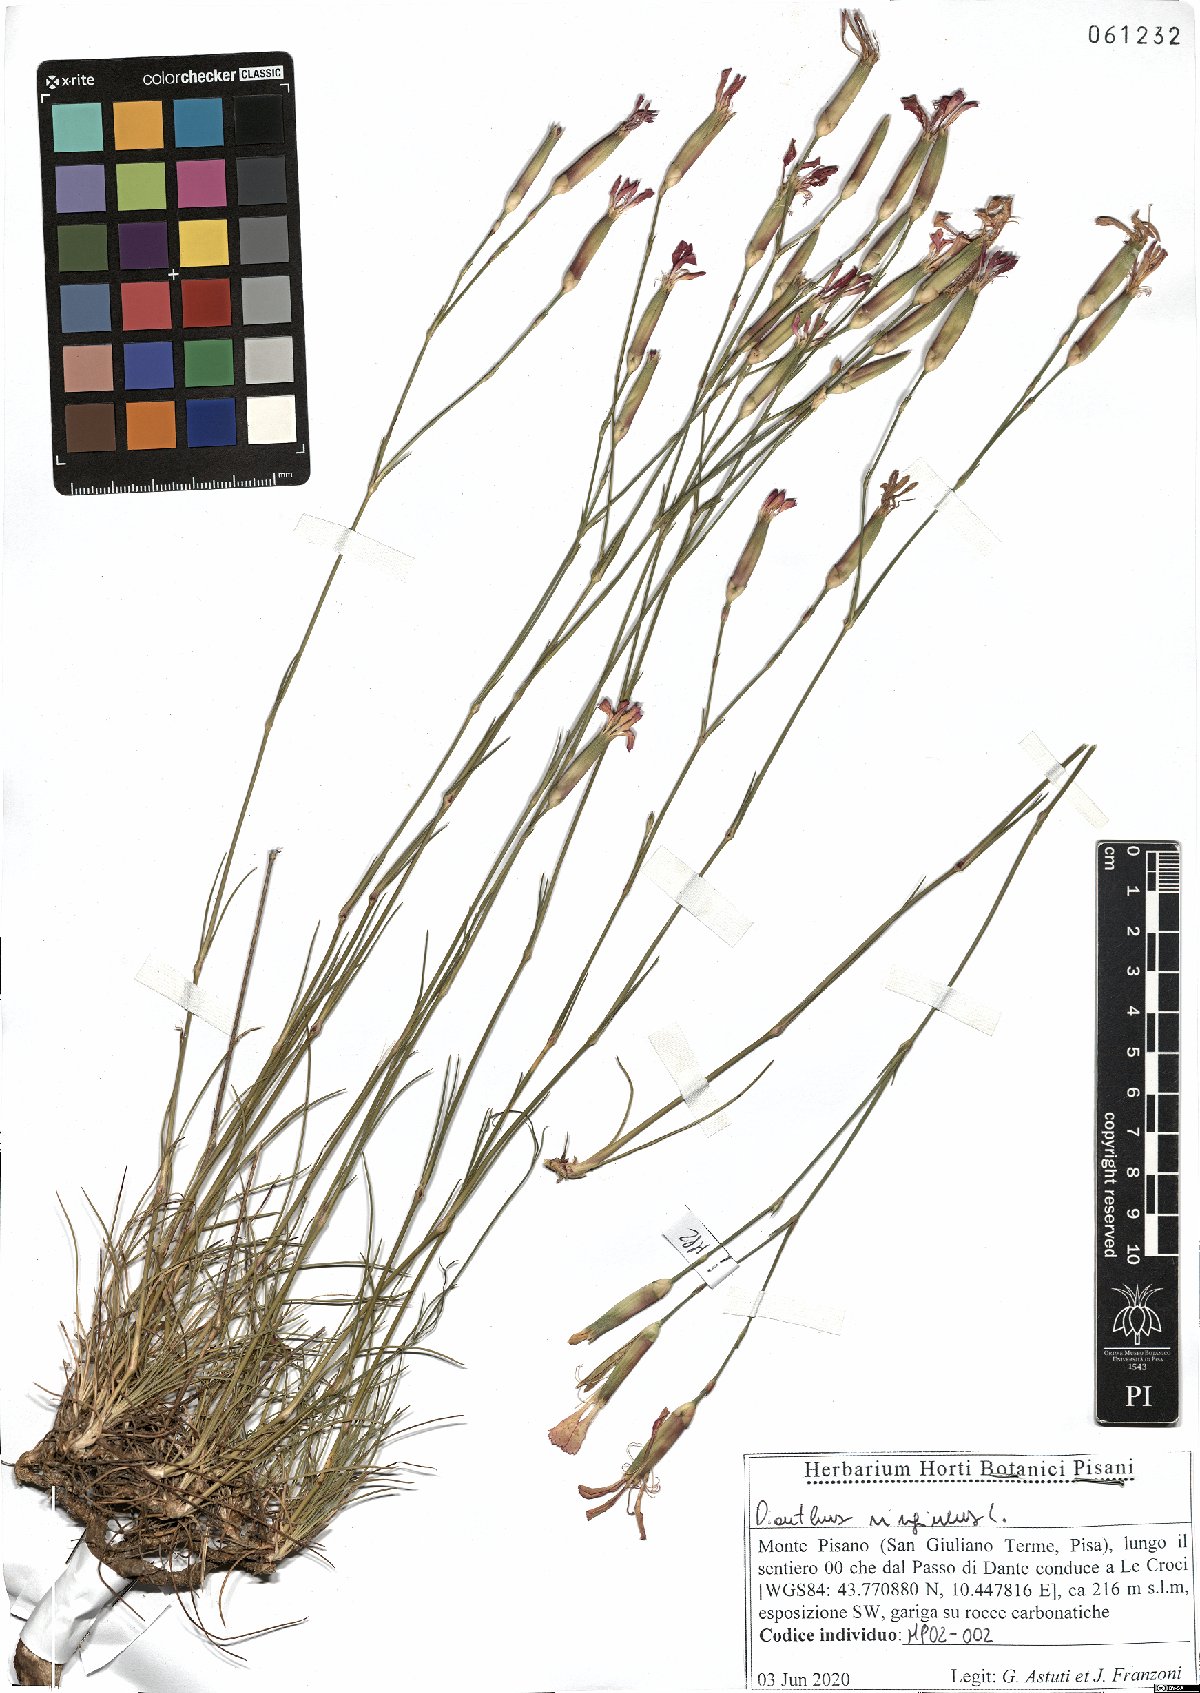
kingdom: Plantae
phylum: Tracheophyta
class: Magnoliopsida
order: Caryophyllales
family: Caryophyllaceae
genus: Dianthus
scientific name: Dianthus virgineus
